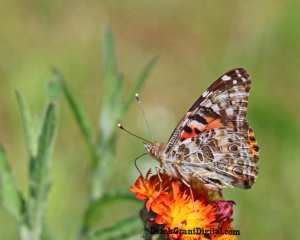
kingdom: Animalia
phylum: Arthropoda
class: Insecta
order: Lepidoptera
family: Nymphalidae
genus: Vanessa
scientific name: Vanessa cardui
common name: Painted Lady
